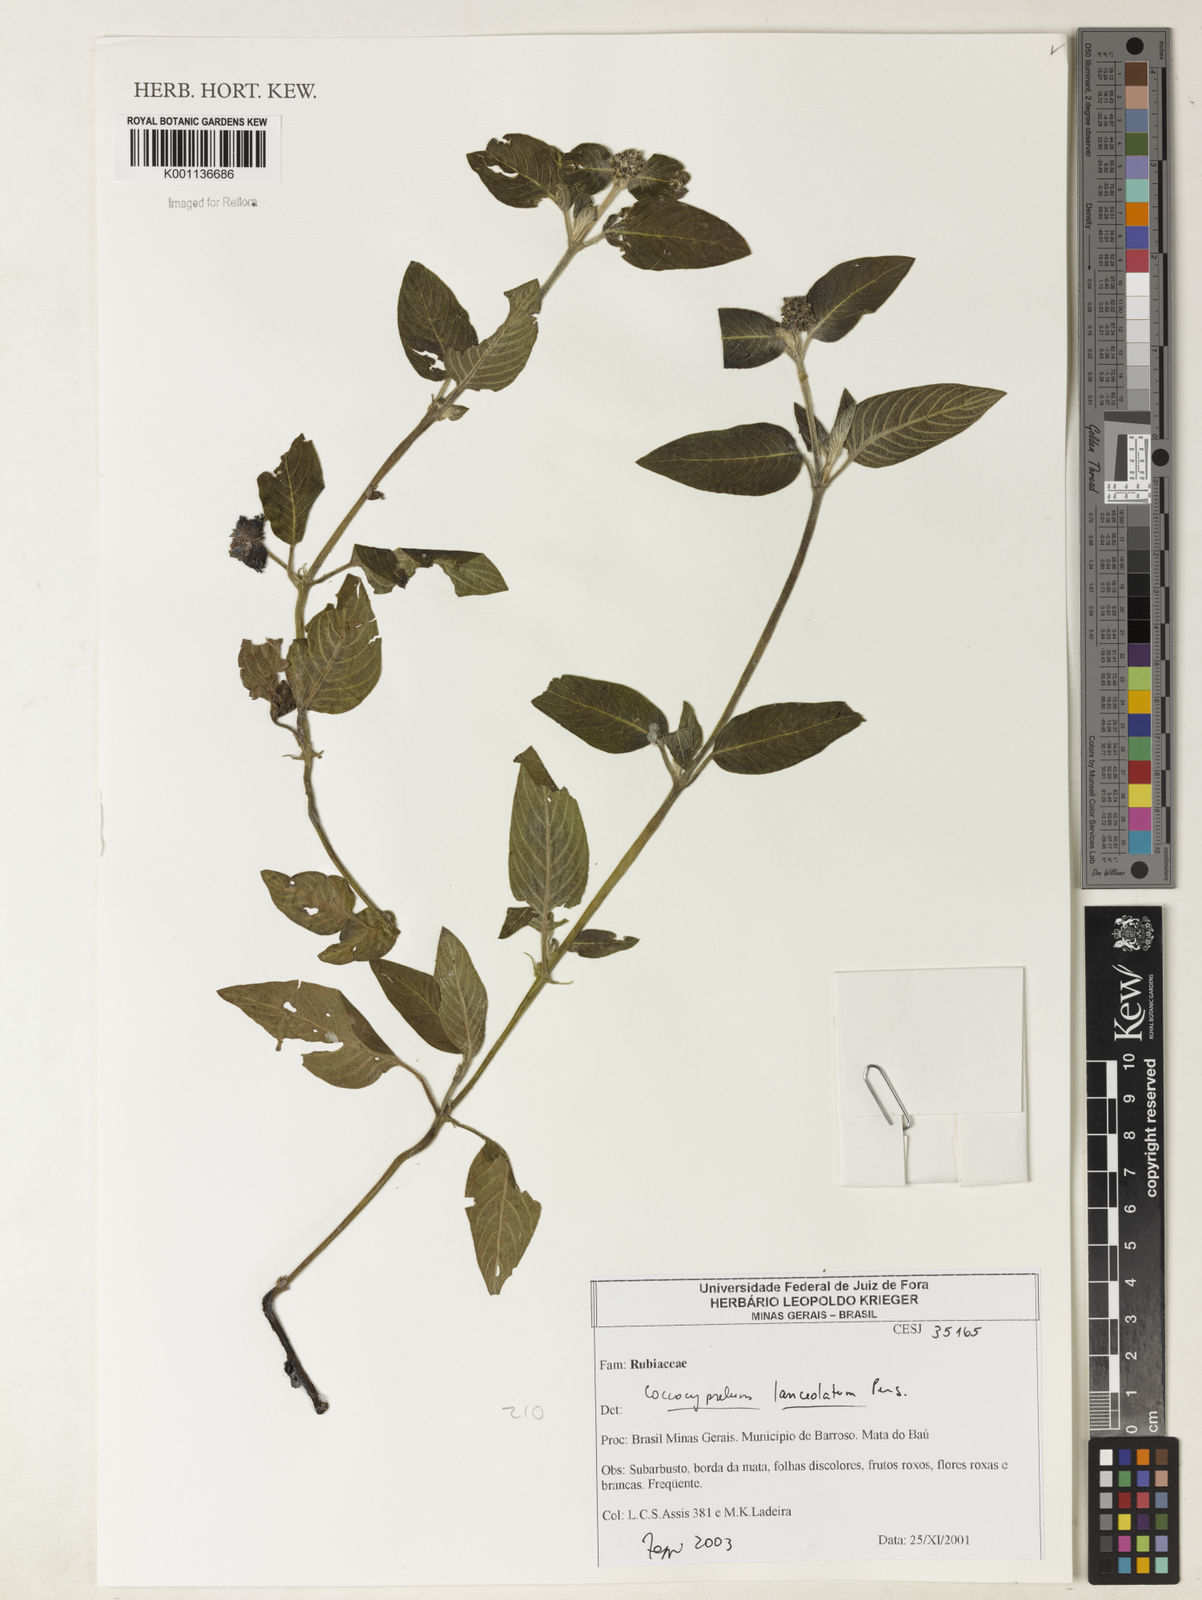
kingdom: Plantae
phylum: Tracheophyta
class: Magnoliopsida
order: Gentianales
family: Rubiaceae
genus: Coccocypselum
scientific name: Coccocypselum lanceolatum
